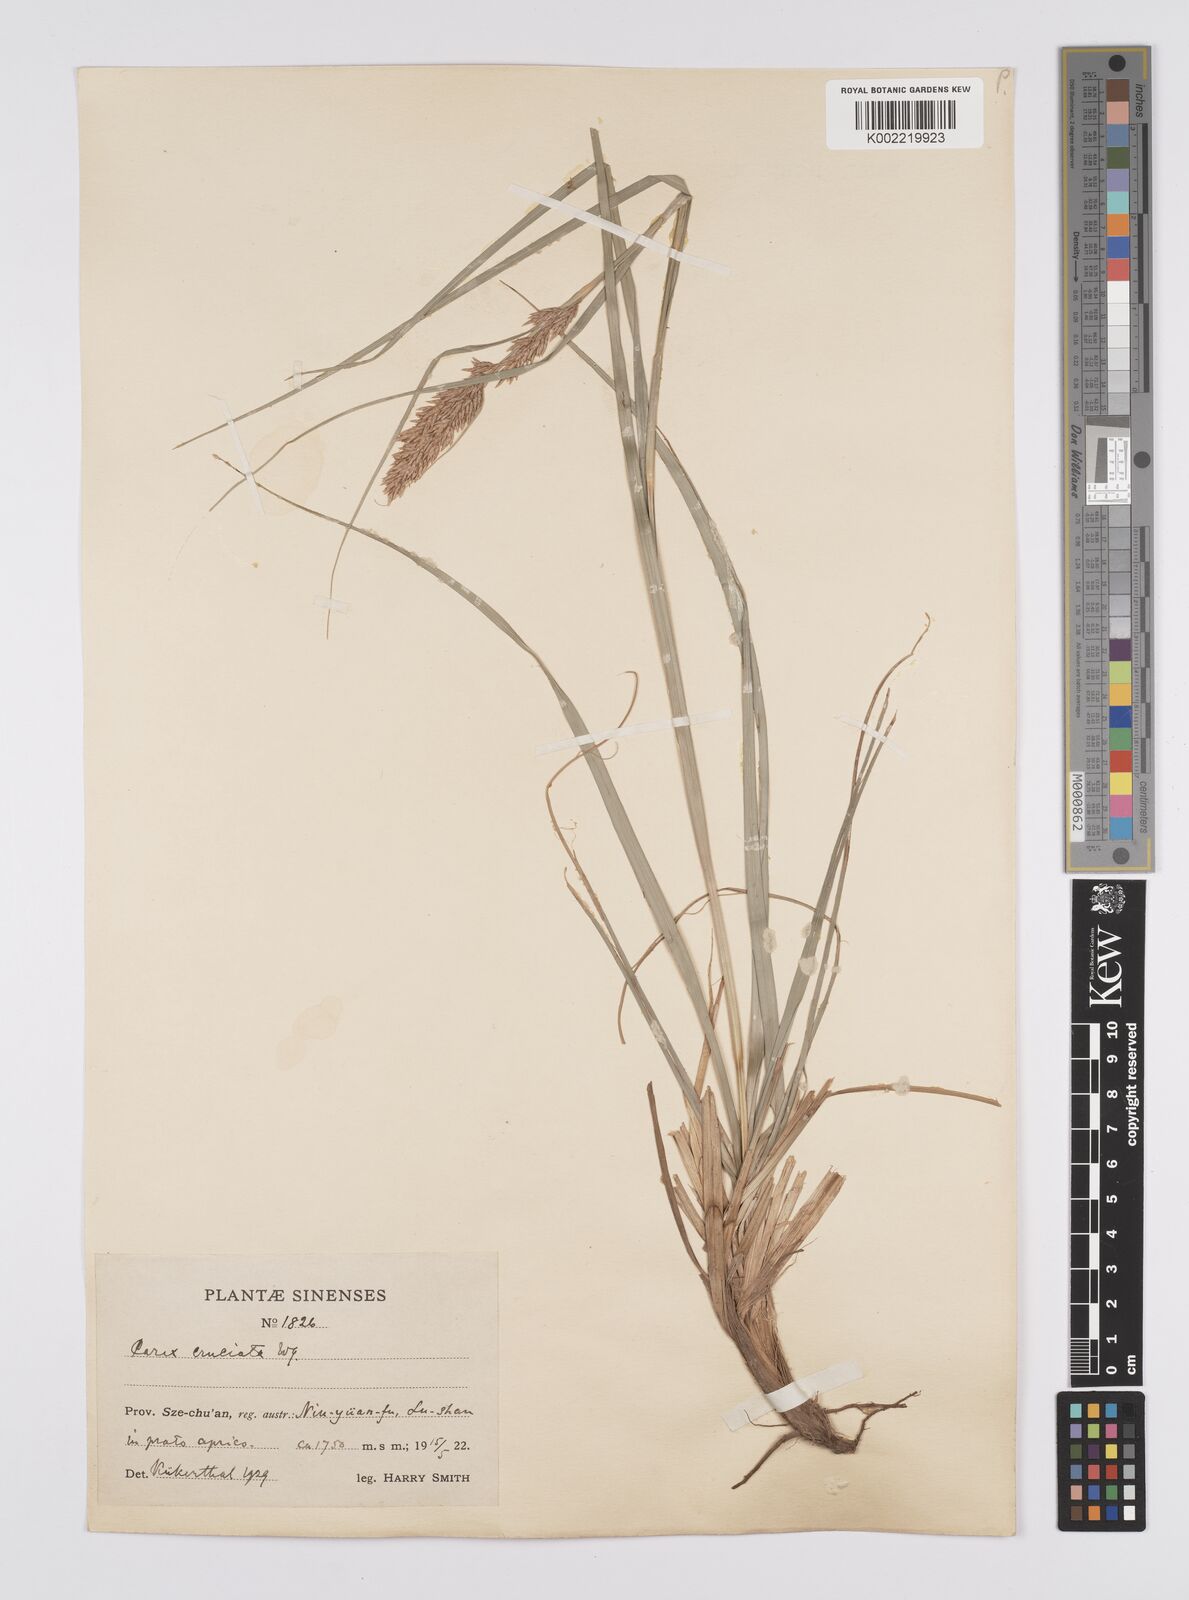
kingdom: Plantae
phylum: Tracheophyta
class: Liliopsida
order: Poales
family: Cyperaceae
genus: Carex
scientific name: Carex cruciata
